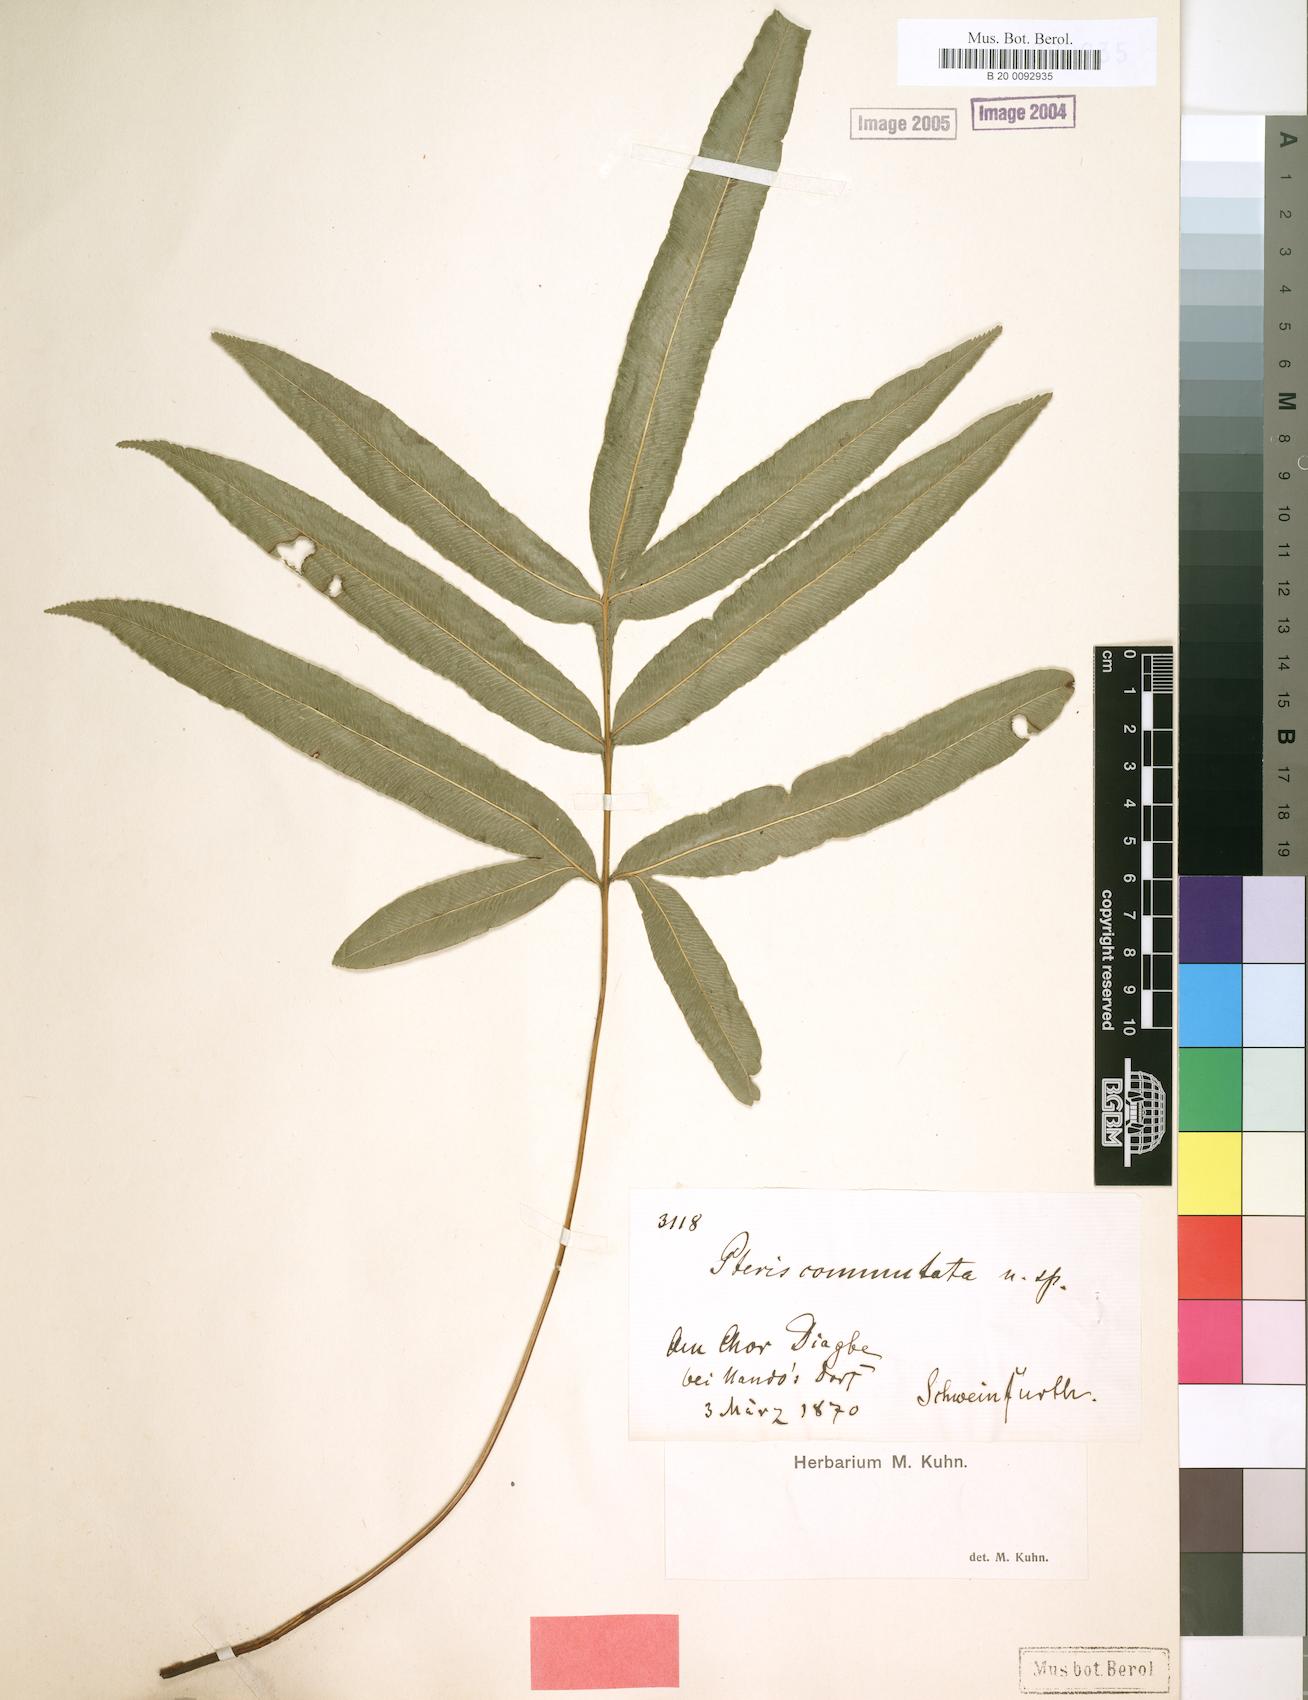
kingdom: Plantae
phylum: Tracheophyta
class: Polypodiopsida
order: Polypodiales
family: Pteridaceae
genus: Pteris
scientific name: Pteris commutata
